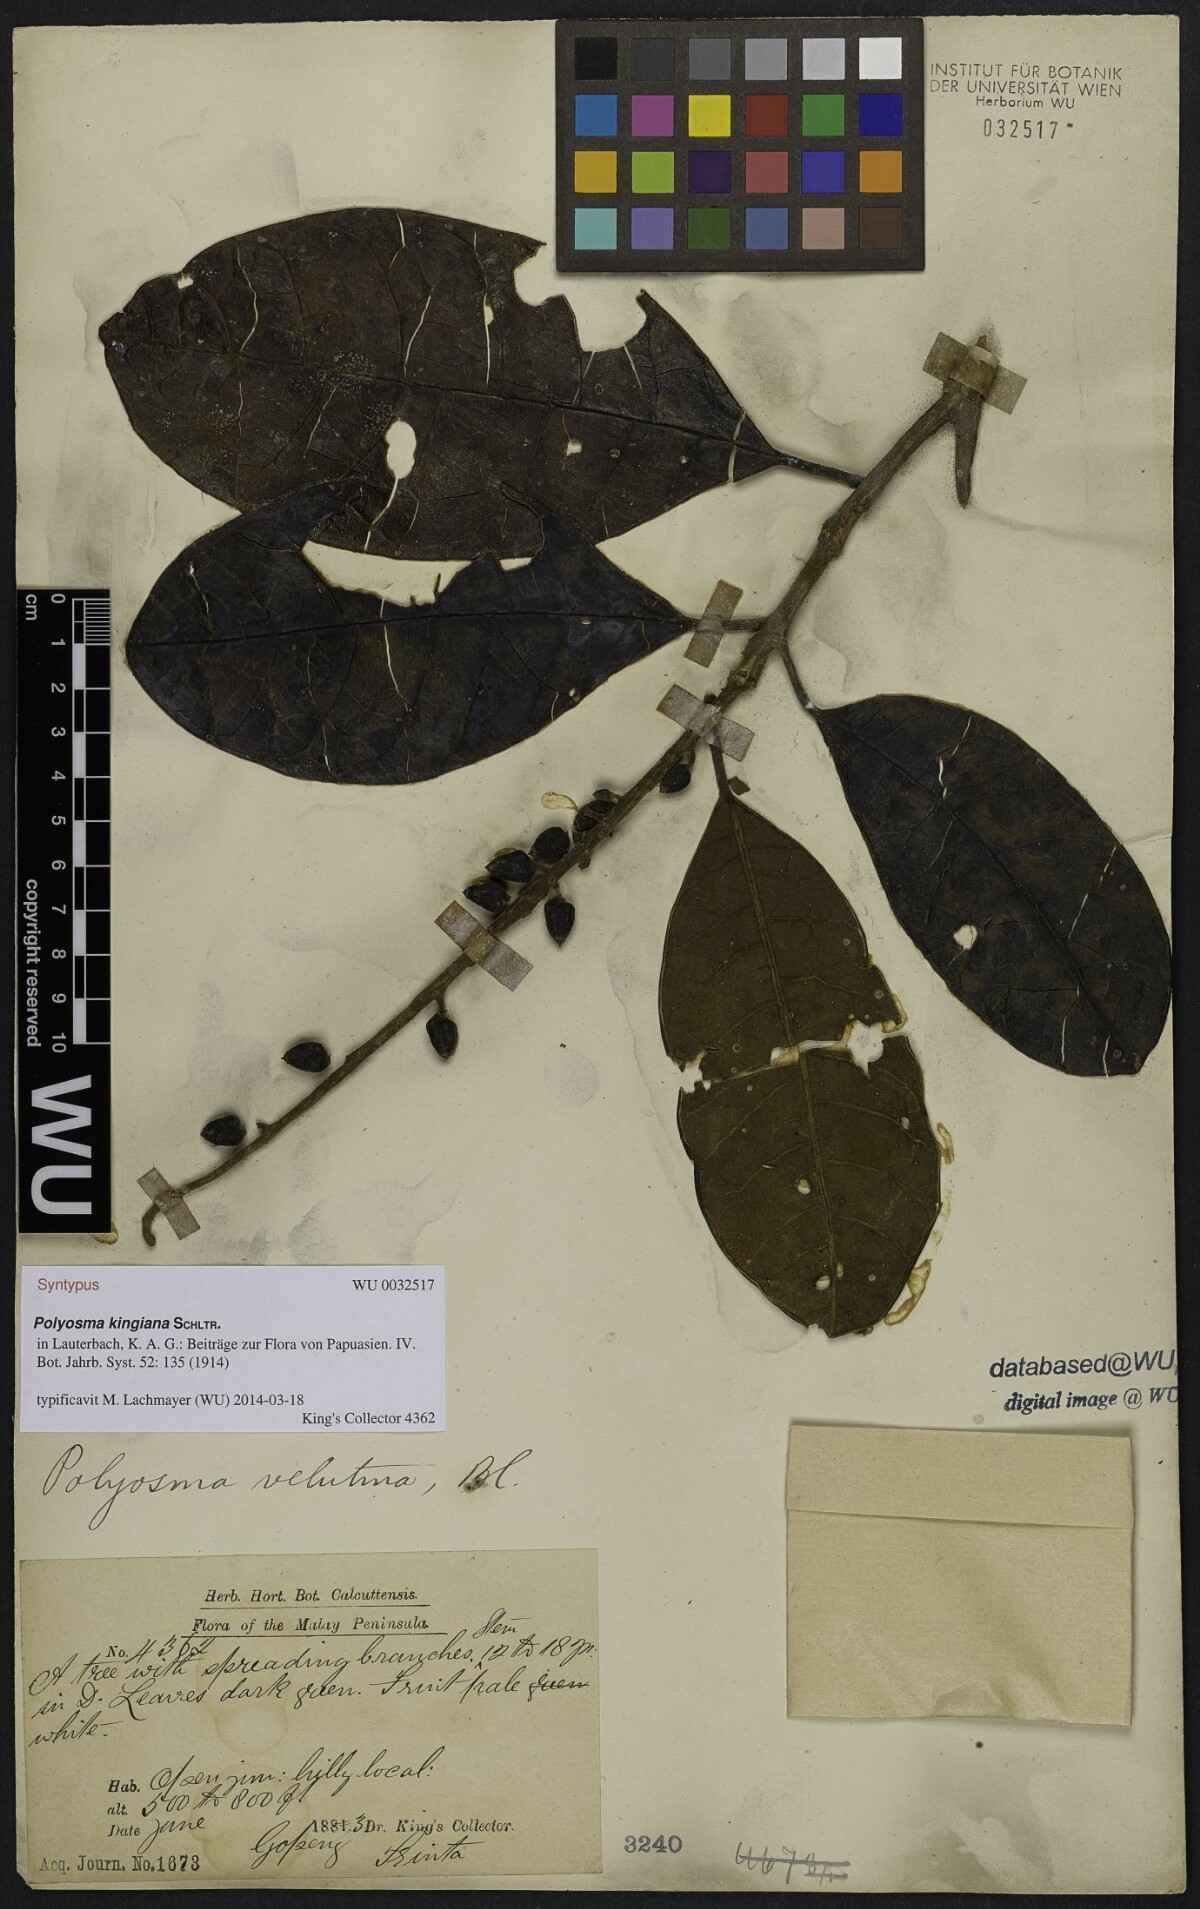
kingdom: Plantae
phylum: Tracheophyta
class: Magnoliopsida
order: Escalloniales
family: Escalloniaceae
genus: Polyosma
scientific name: Polyosma kingiana
